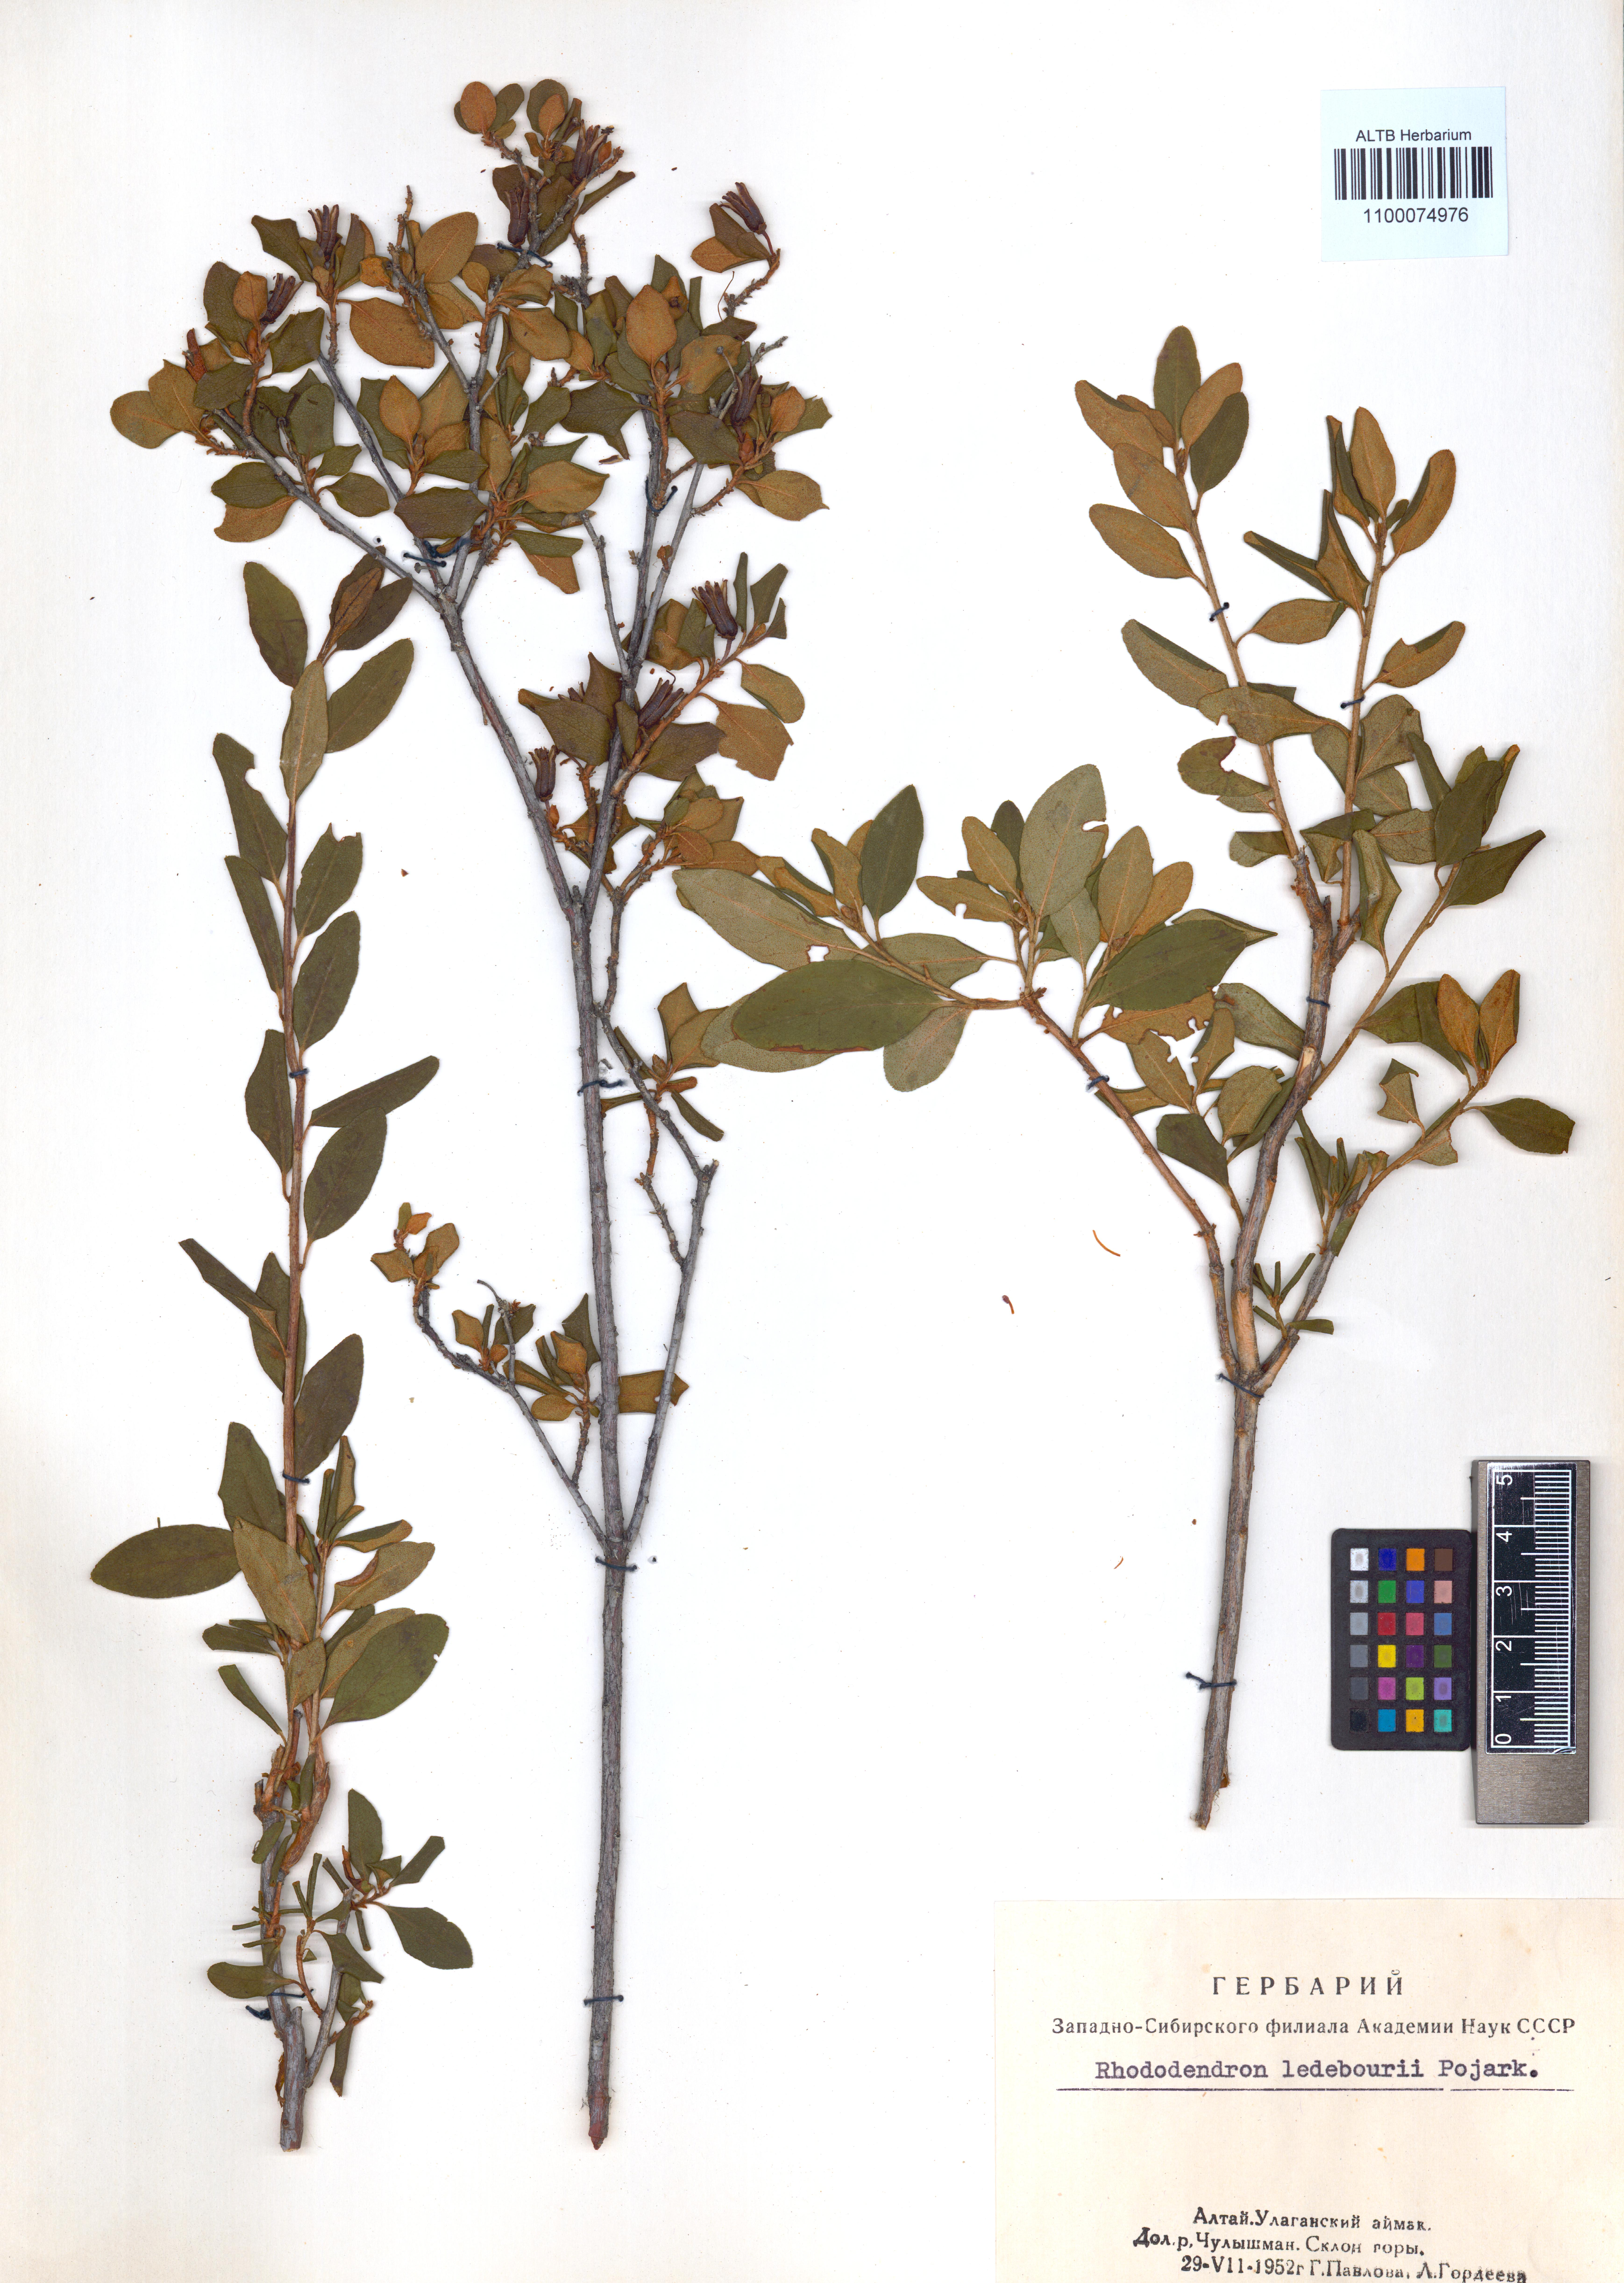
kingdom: Plantae
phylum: Tracheophyta
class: Magnoliopsida
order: Ericales
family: Ericaceae
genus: Rhododendron
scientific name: Rhododendron dauricum
